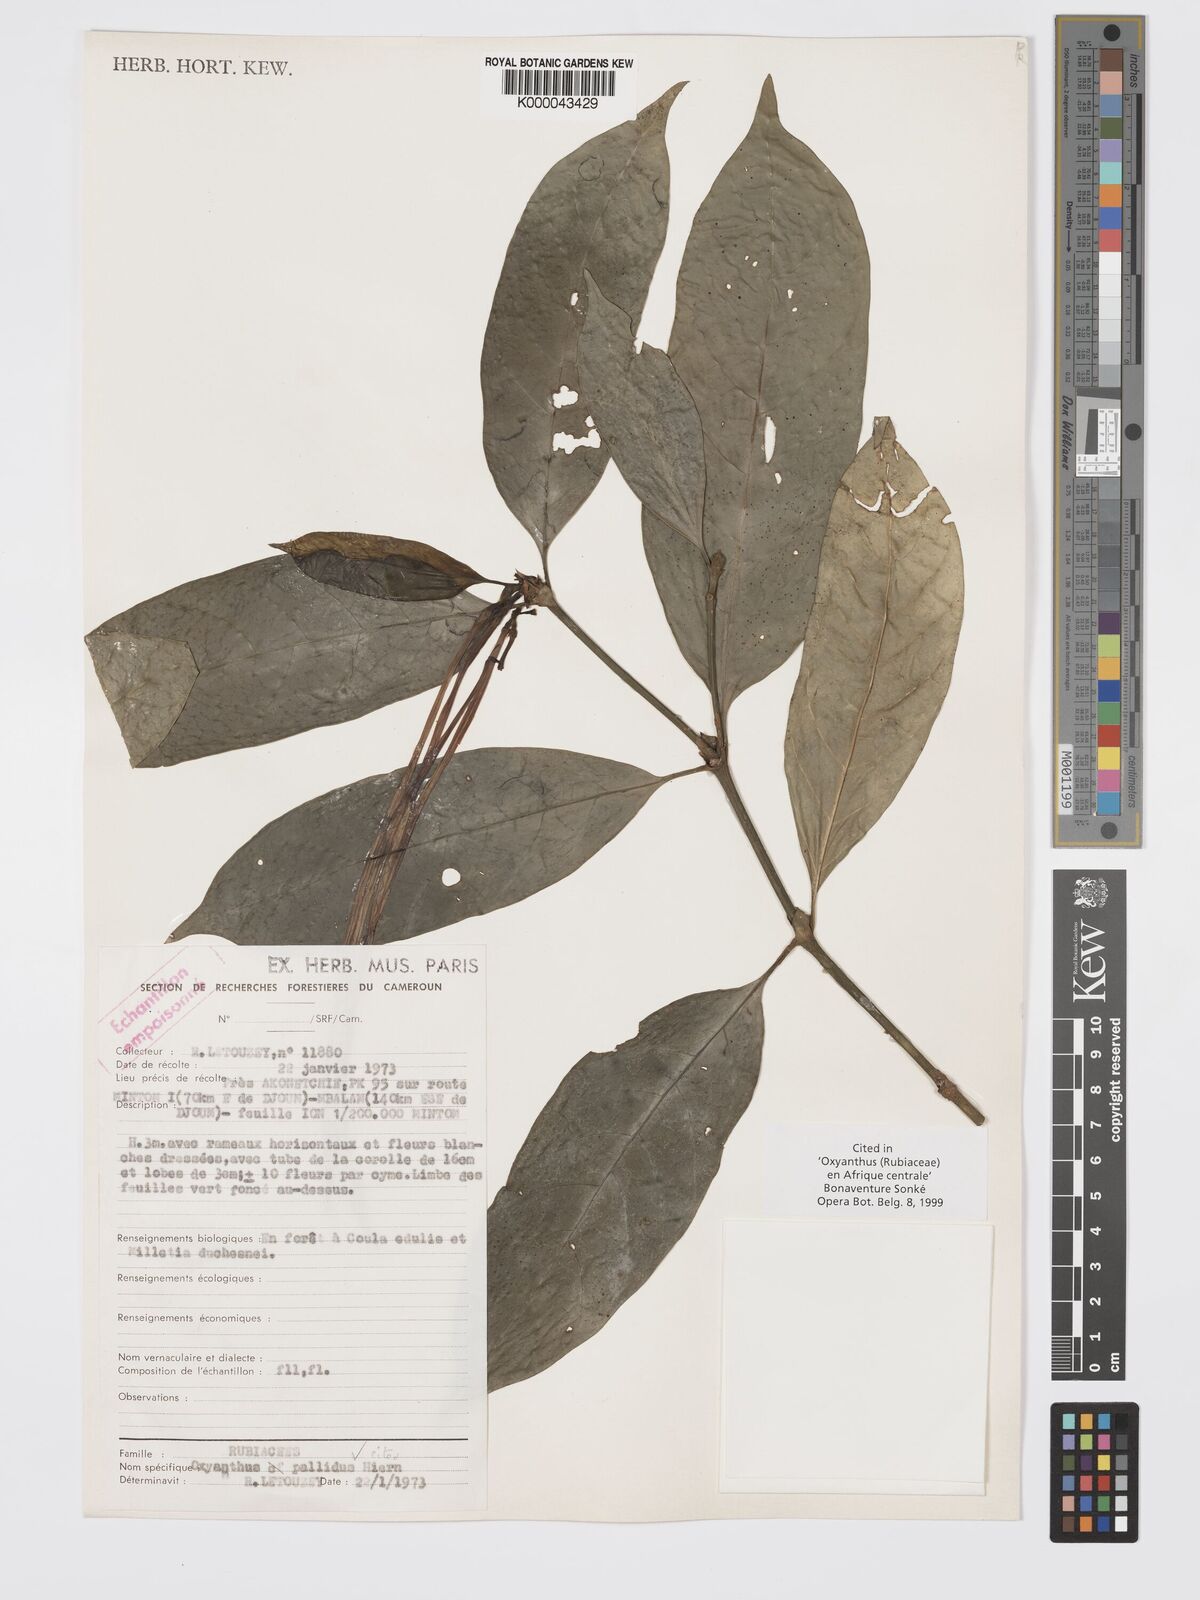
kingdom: Plantae
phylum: Tracheophyta
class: Magnoliopsida
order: Gentianales
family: Rubiaceae
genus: Oxyanthus
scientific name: Oxyanthus pallidus
